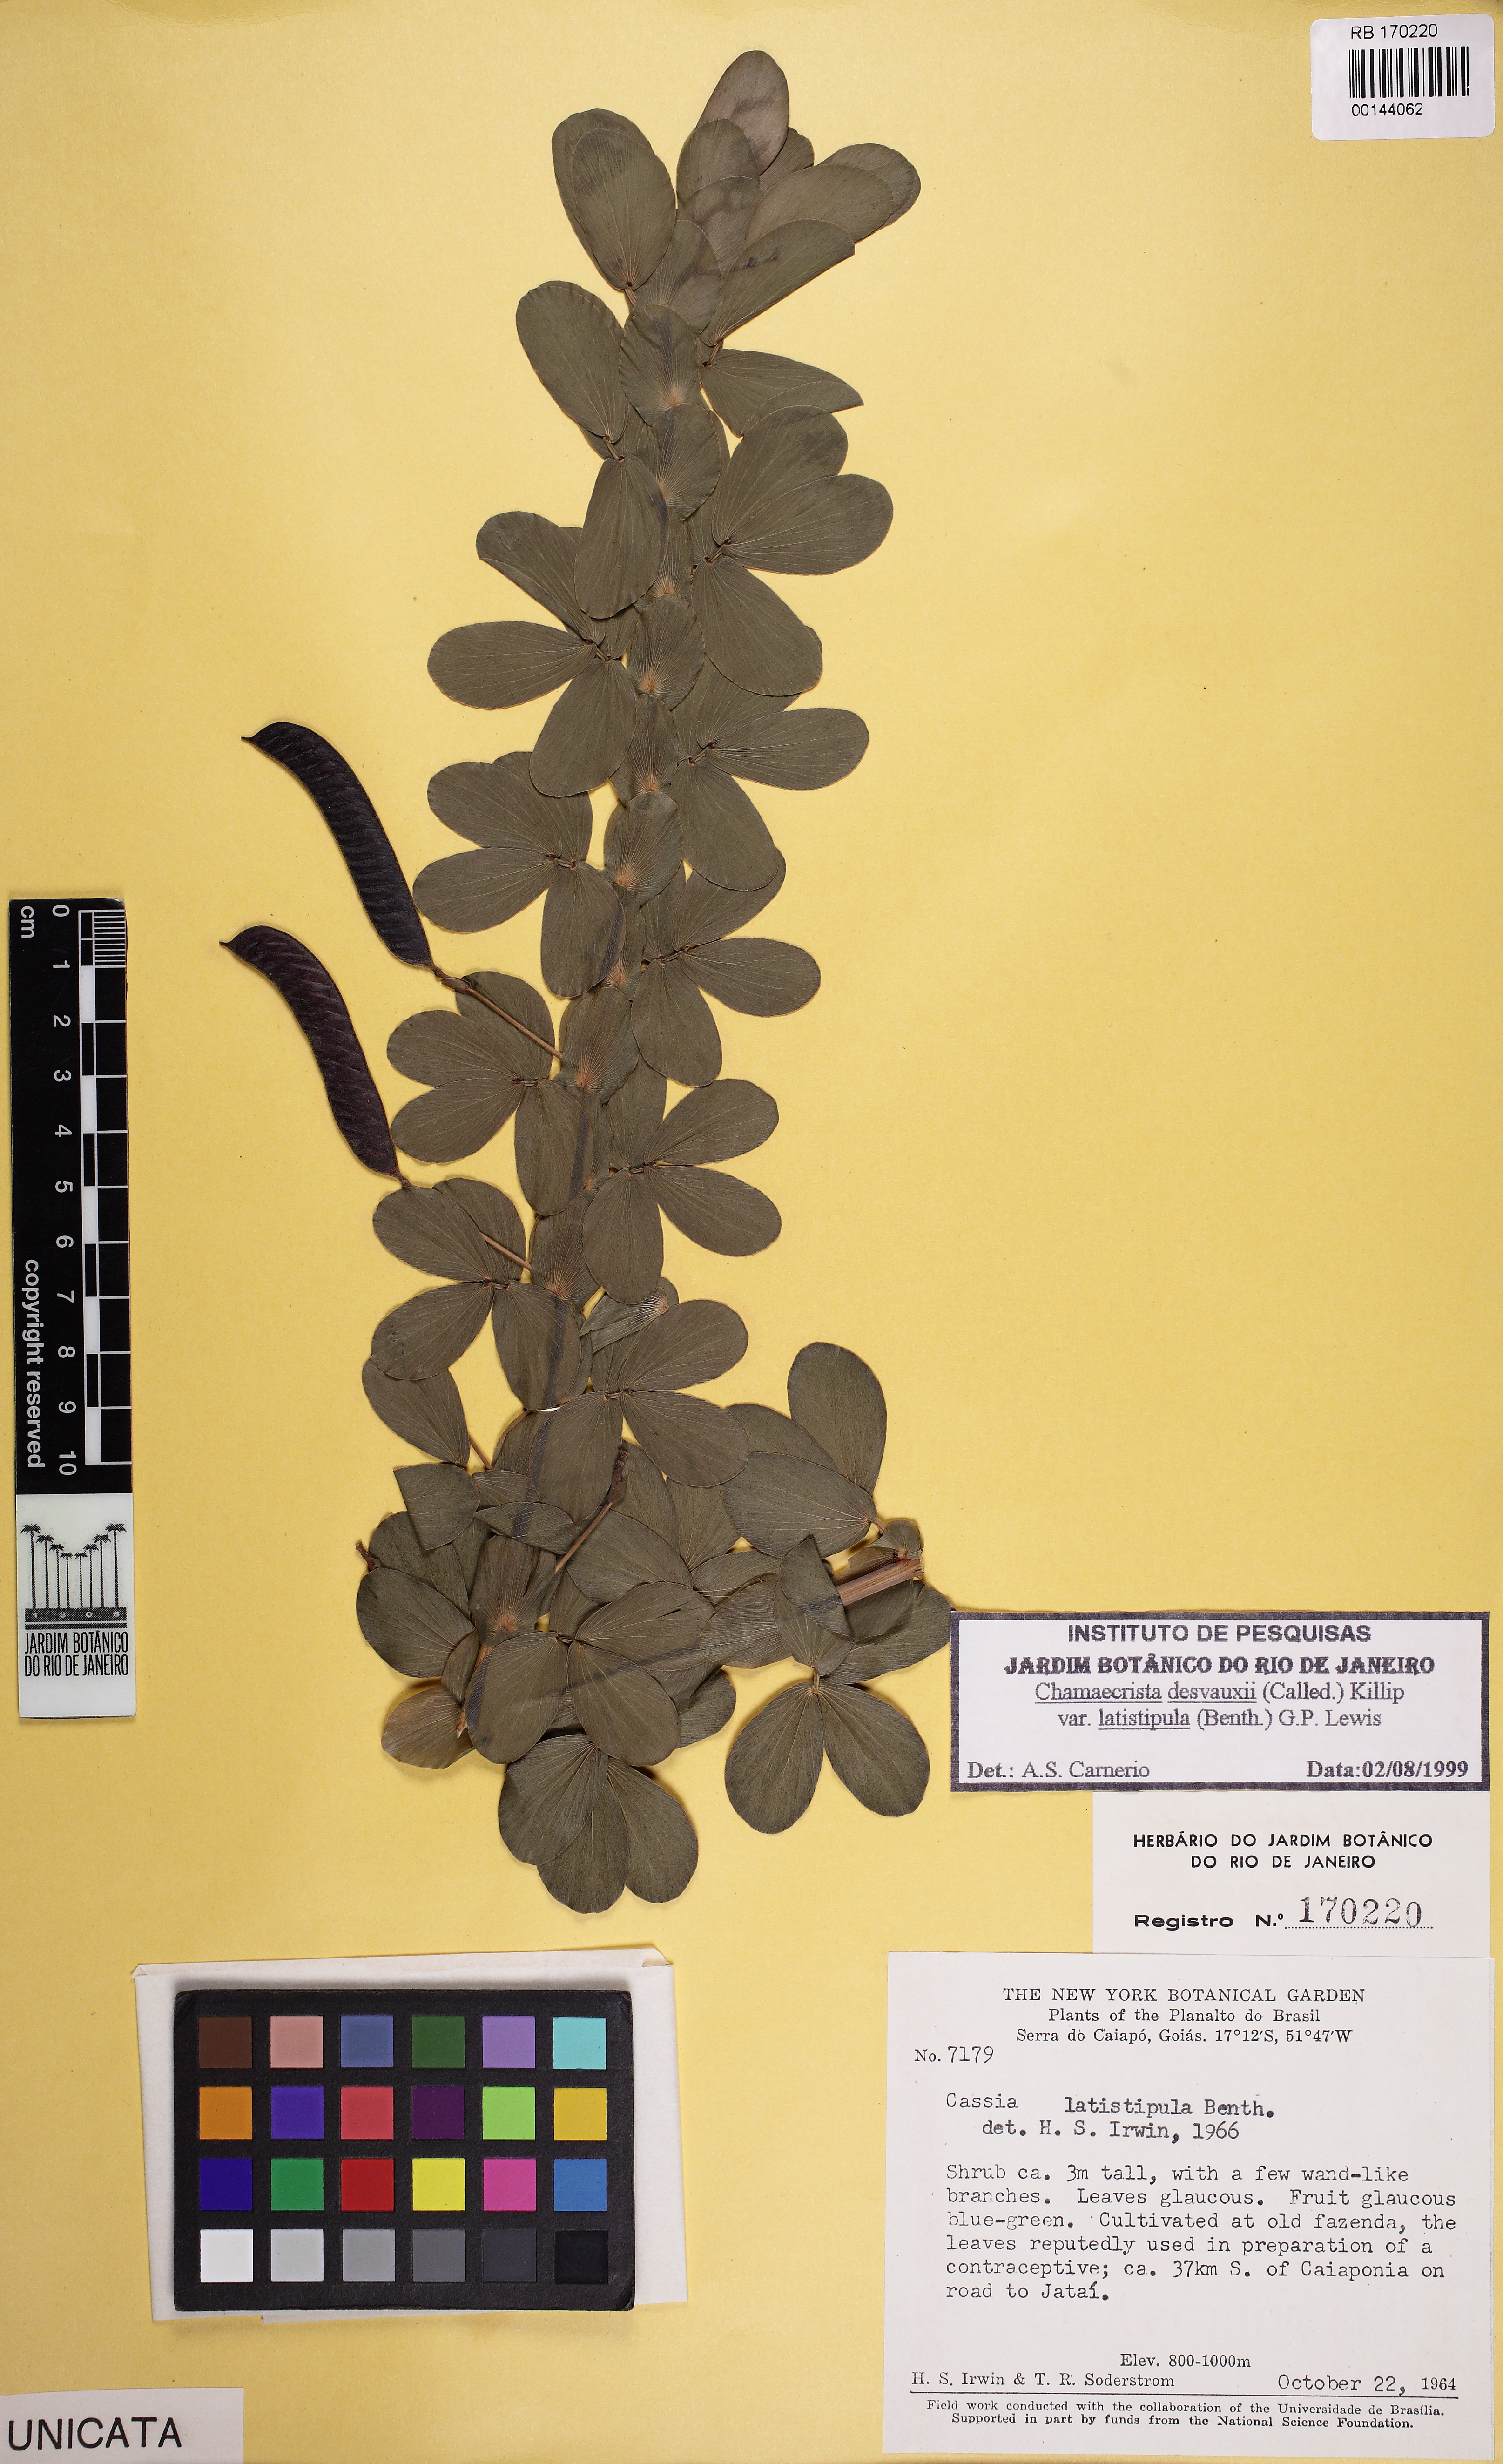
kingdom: Plantae
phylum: Tracheophyta
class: Magnoliopsida
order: Fabales
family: Fabaceae
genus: Chamaecrista
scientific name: Chamaecrista desvauxii
